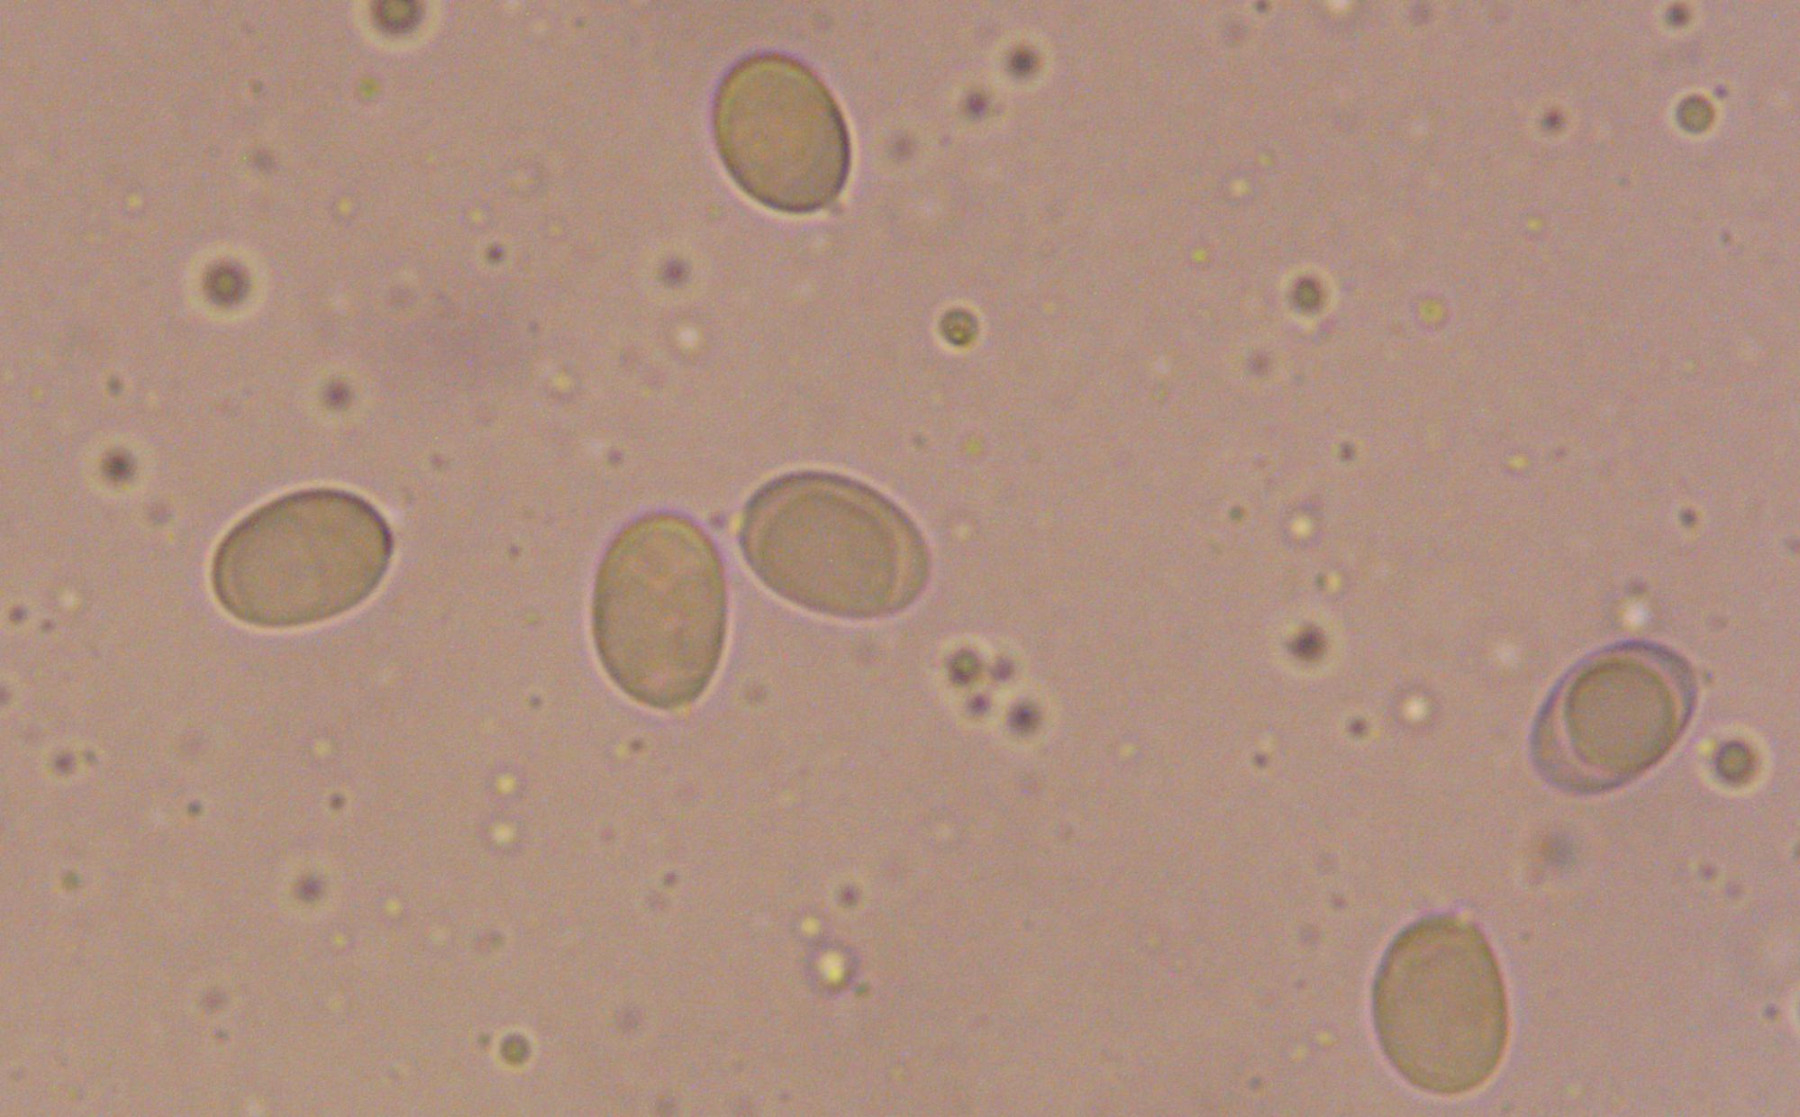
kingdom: Fungi
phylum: Basidiomycota
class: Agaricomycetes
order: Agaricales
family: Mycenaceae
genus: Mycena
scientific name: Mycena polygramma
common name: mangestribet huesvamp
